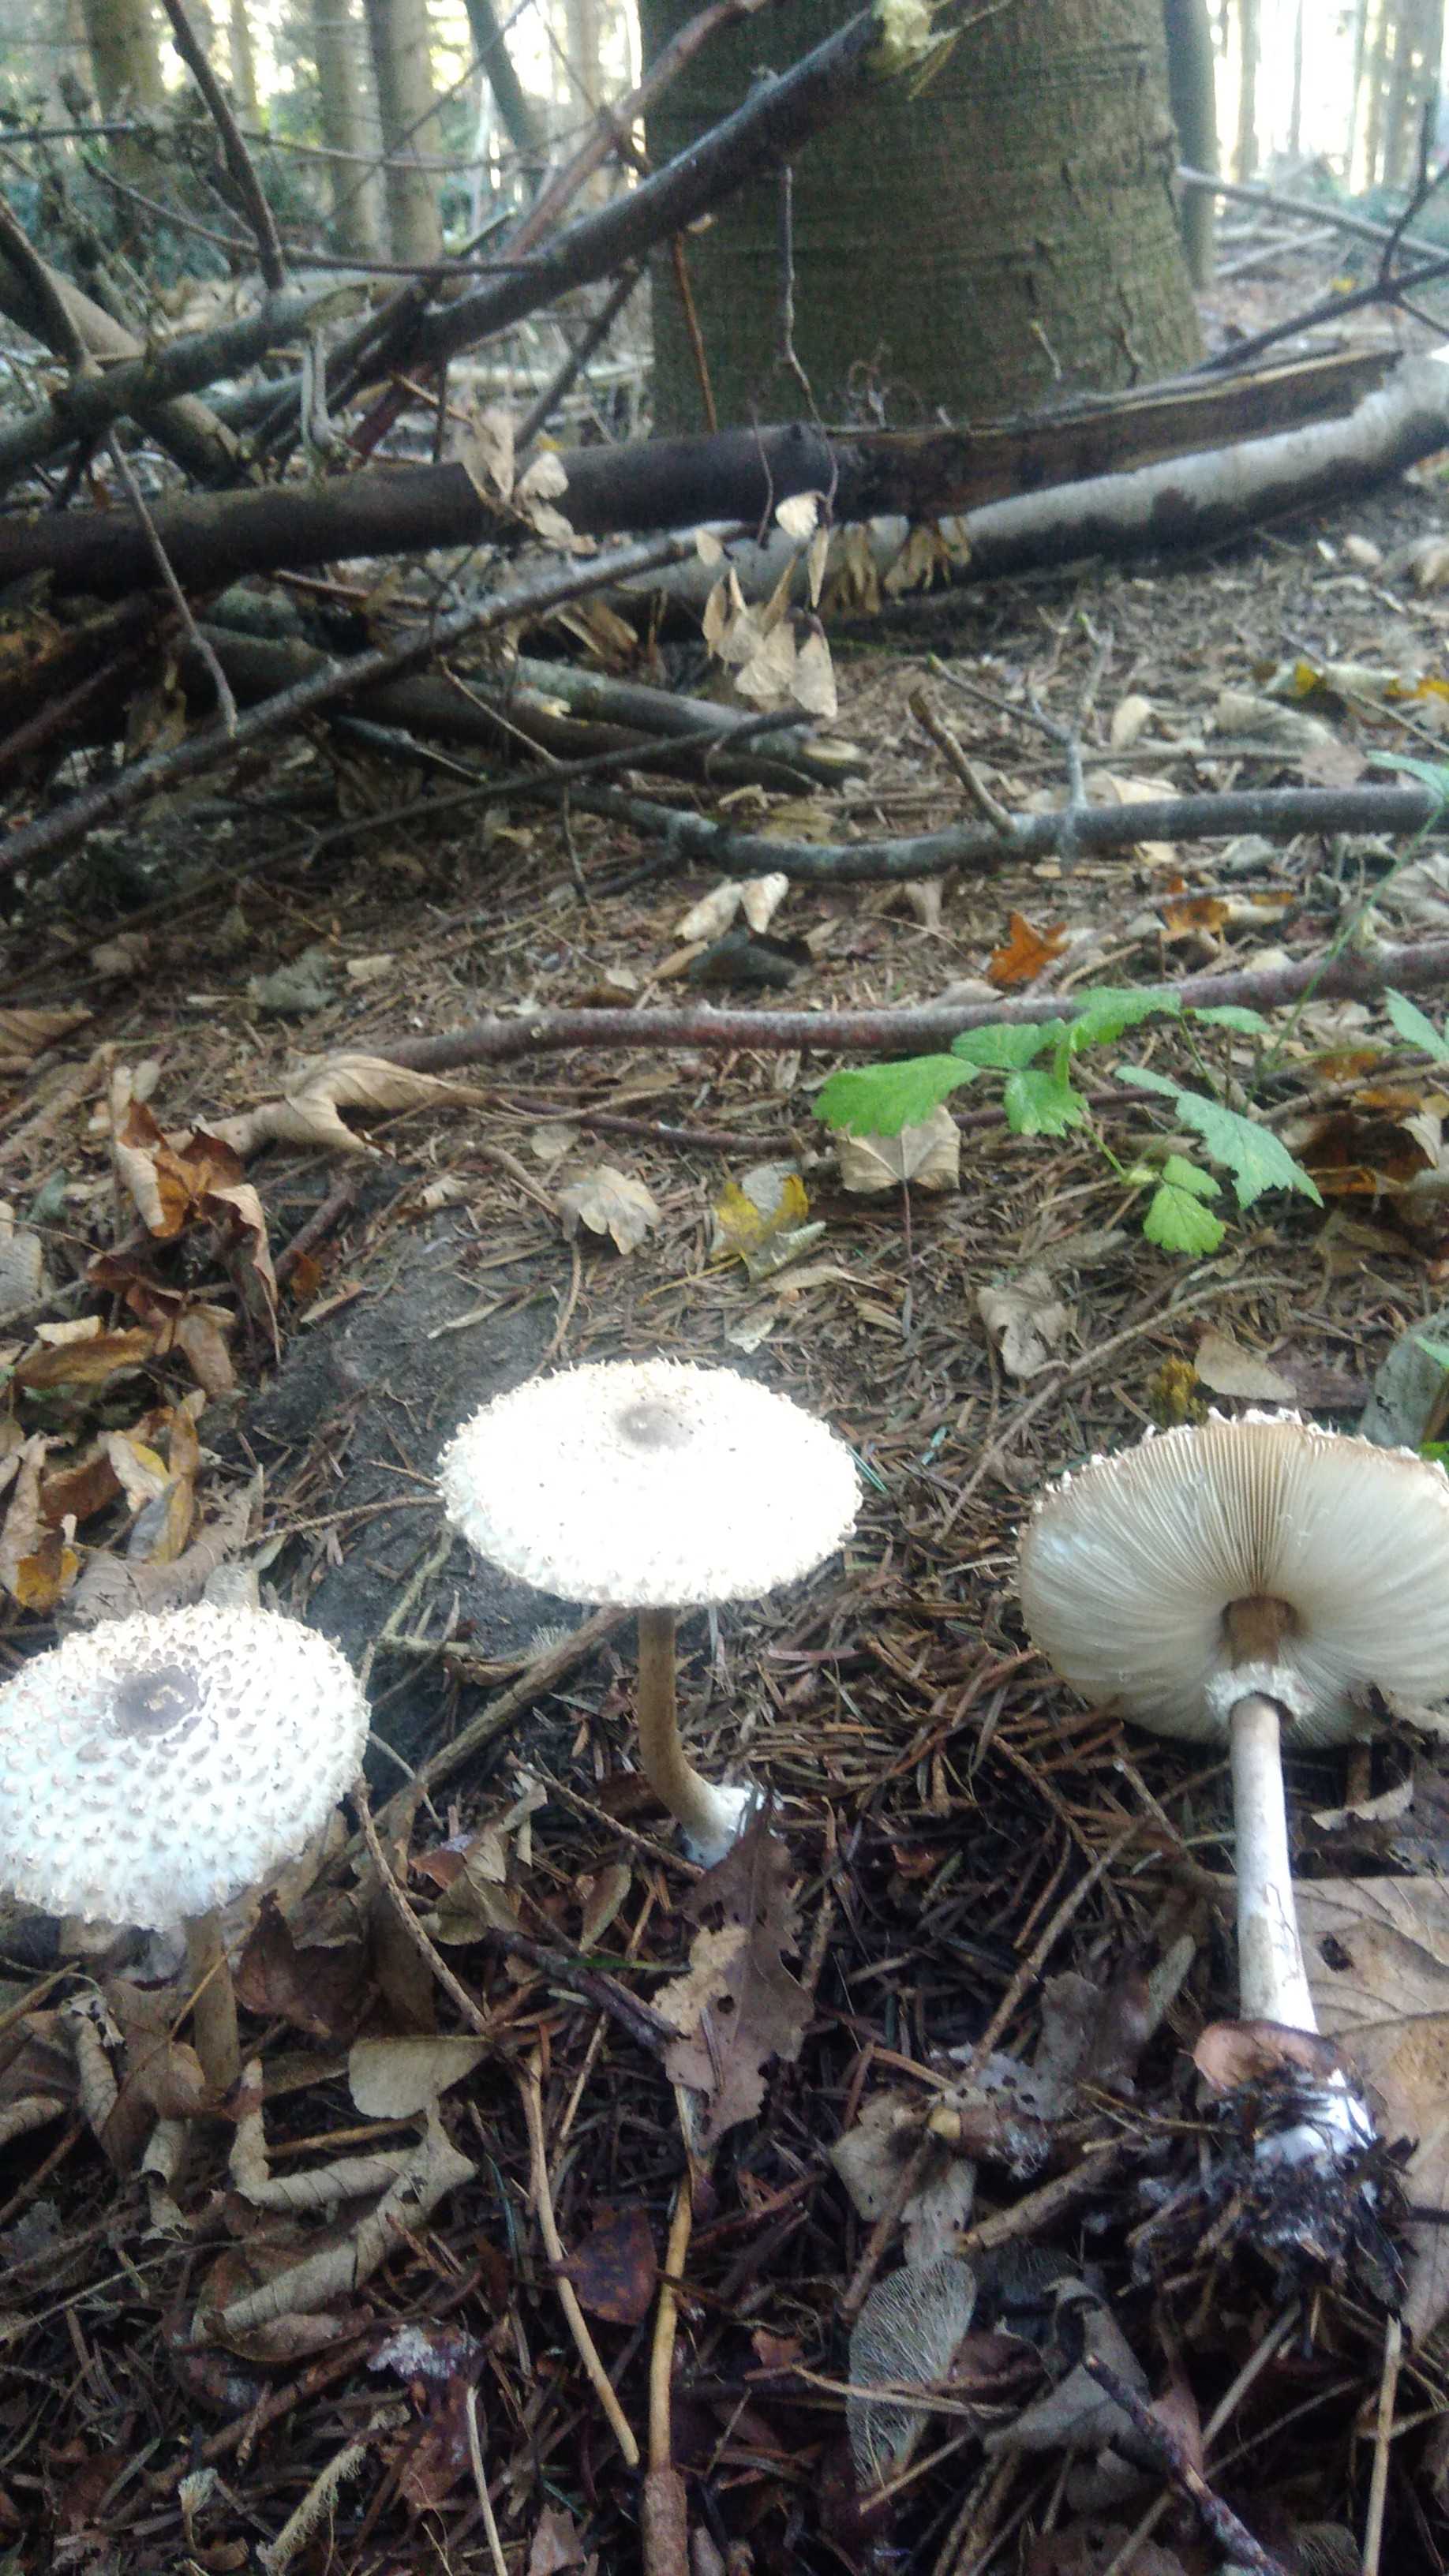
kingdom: Fungi
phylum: Basidiomycota
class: Agaricomycetes
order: Agaricales
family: Agaricaceae
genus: Leucoagaricus
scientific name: Leucoagaricus nympharum
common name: gran-silkehat
